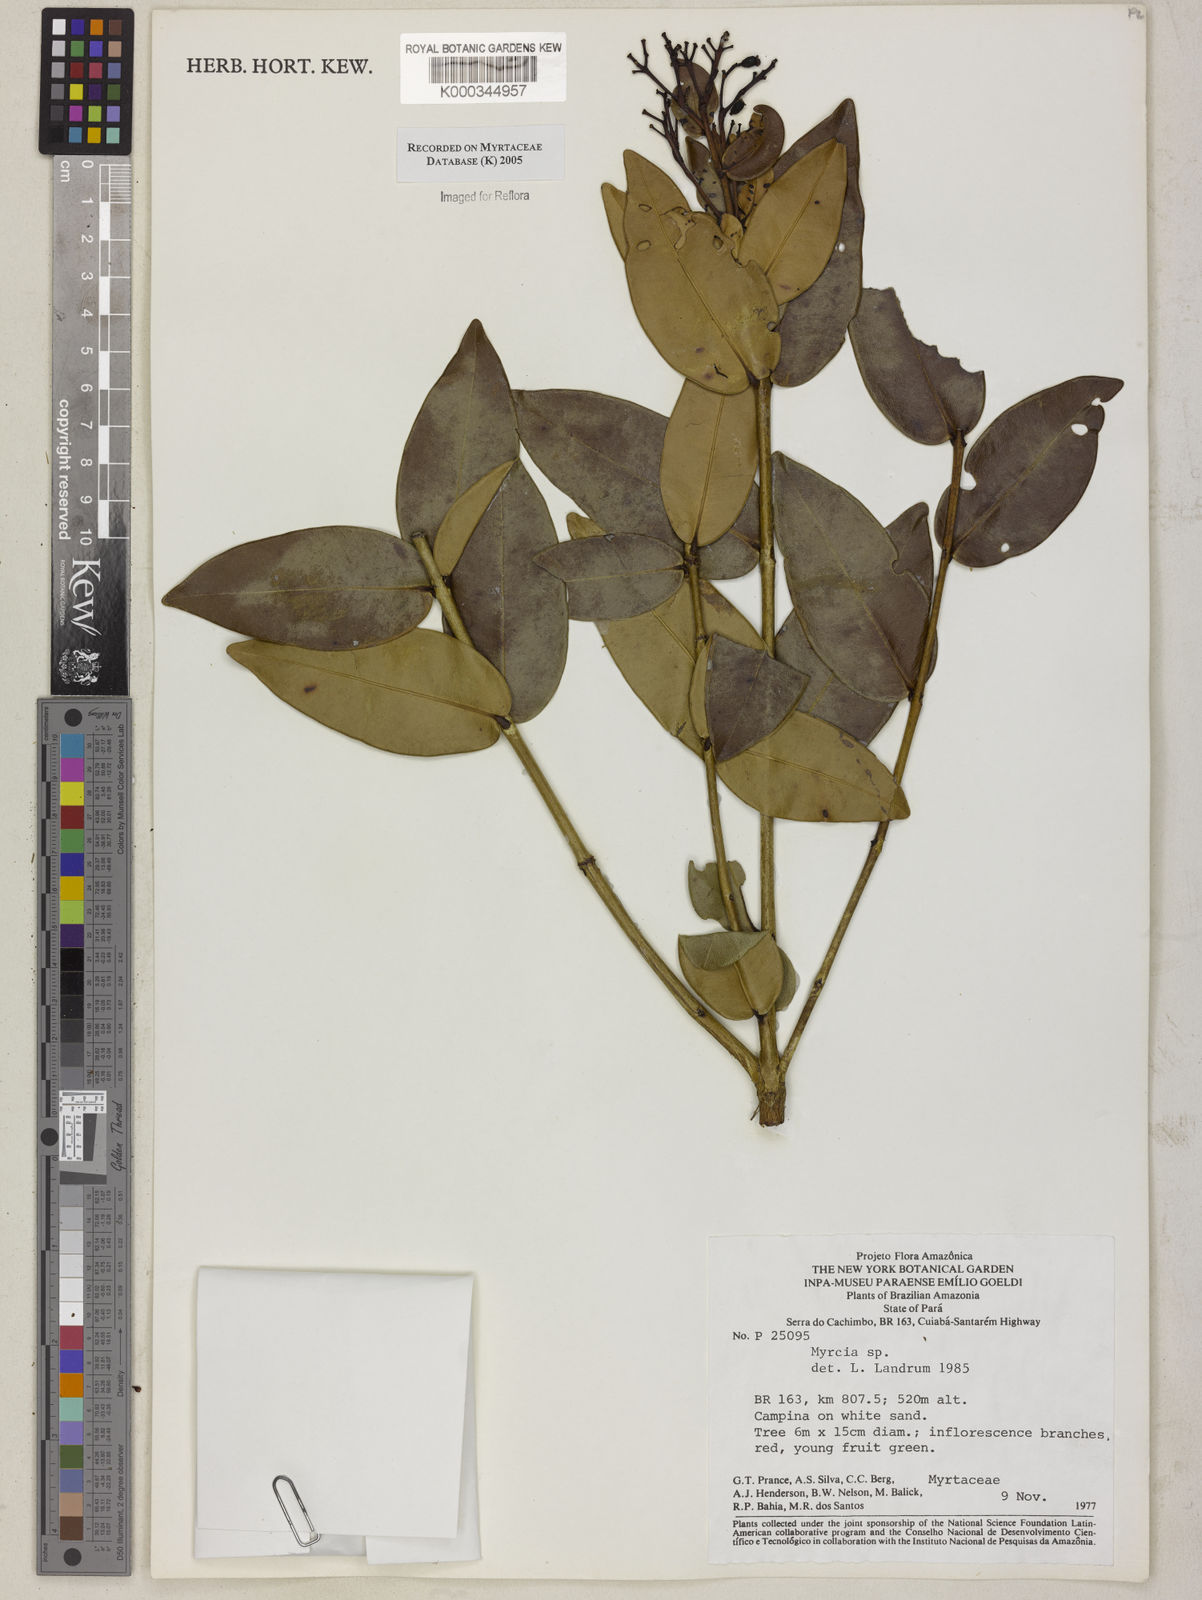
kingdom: Plantae
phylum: Tracheophyta
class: Magnoliopsida
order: Myrtales
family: Myrtaceae
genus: Myrcia
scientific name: Myrcia
